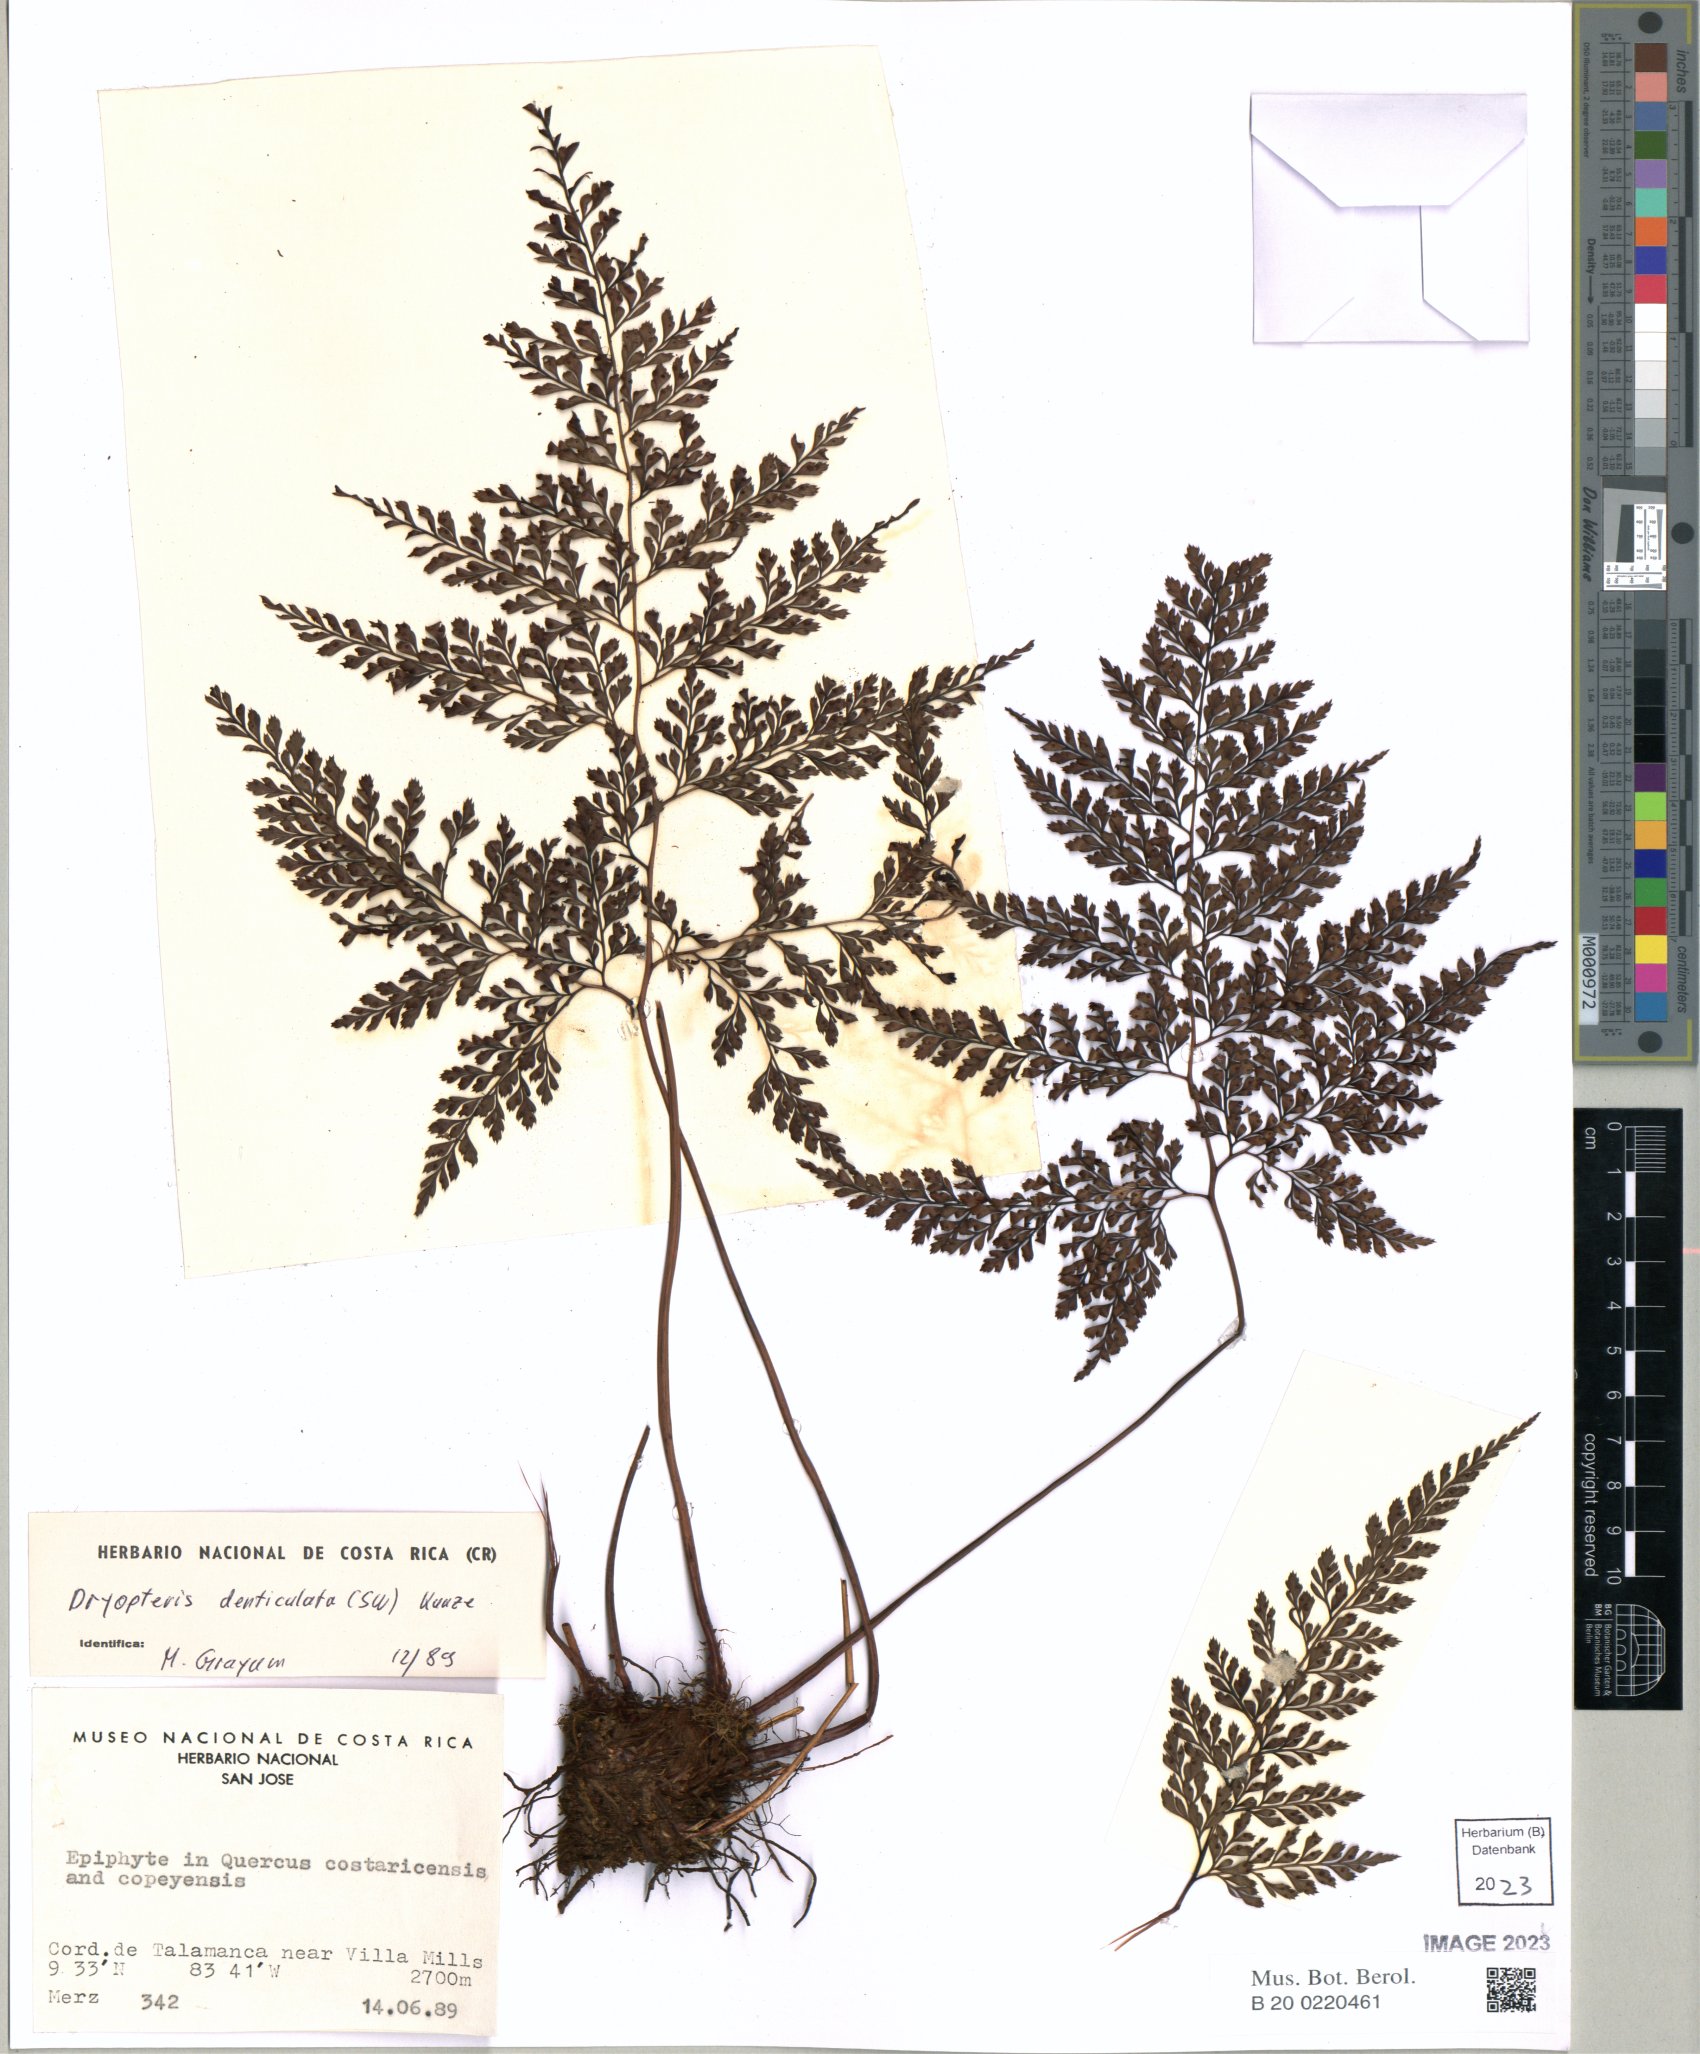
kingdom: Plantae
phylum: Tracheophyta
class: Polypodiopsida
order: Polypodiales
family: Dryopteridaceae
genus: Arachniodes
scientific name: Arachniodes denticulata
